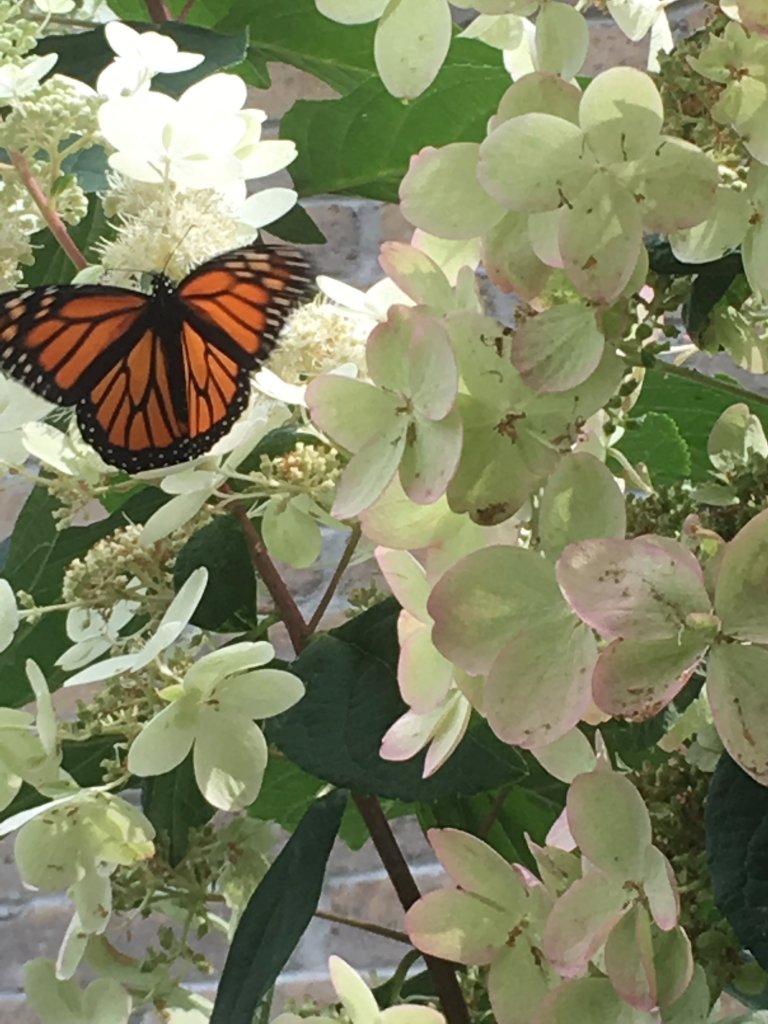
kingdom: Animalia
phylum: Arthropoda
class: Insecta
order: Lepidoptera
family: Nymphalidae
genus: Danaus
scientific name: Danaus plexippus
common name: Monarch
